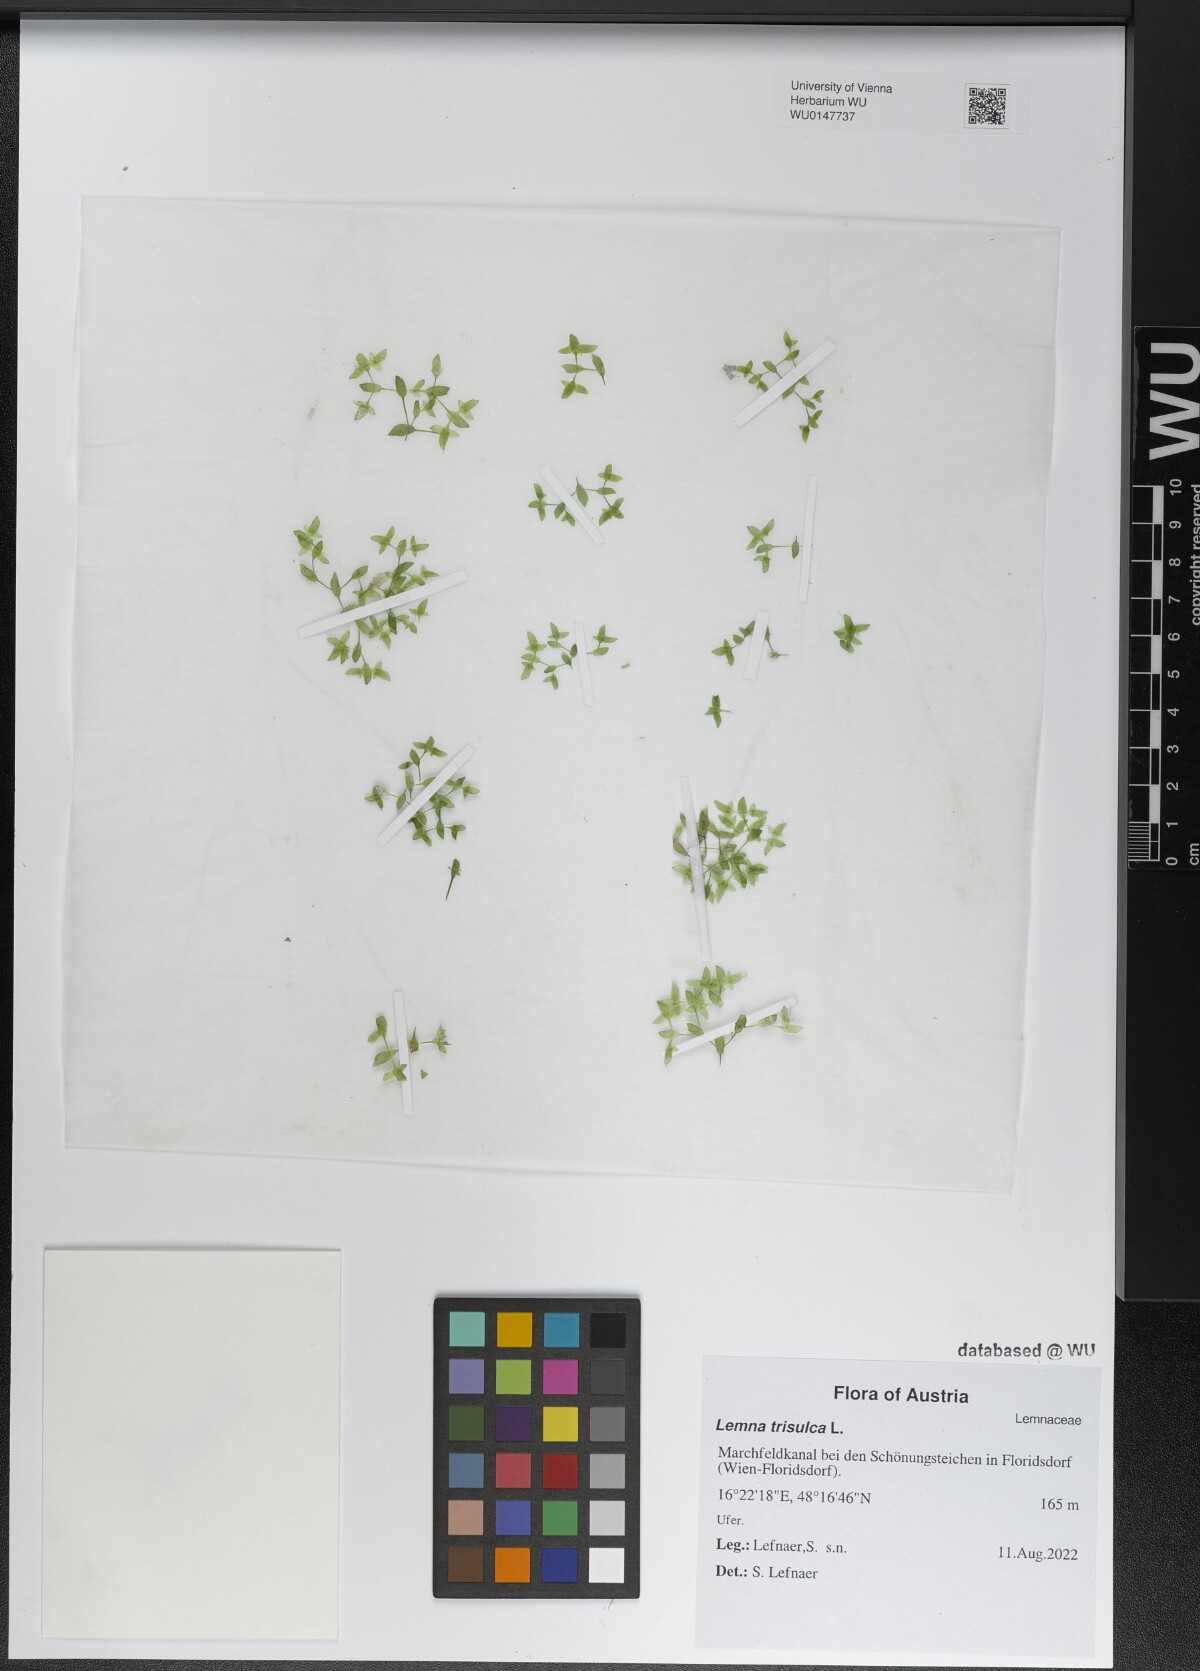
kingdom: Plantae
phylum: Tracheophyta
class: Liliopsida
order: Alismatales
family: Araceae
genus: Lemna
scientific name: Lemna trisulca
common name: Ivy-leaved duckweed
